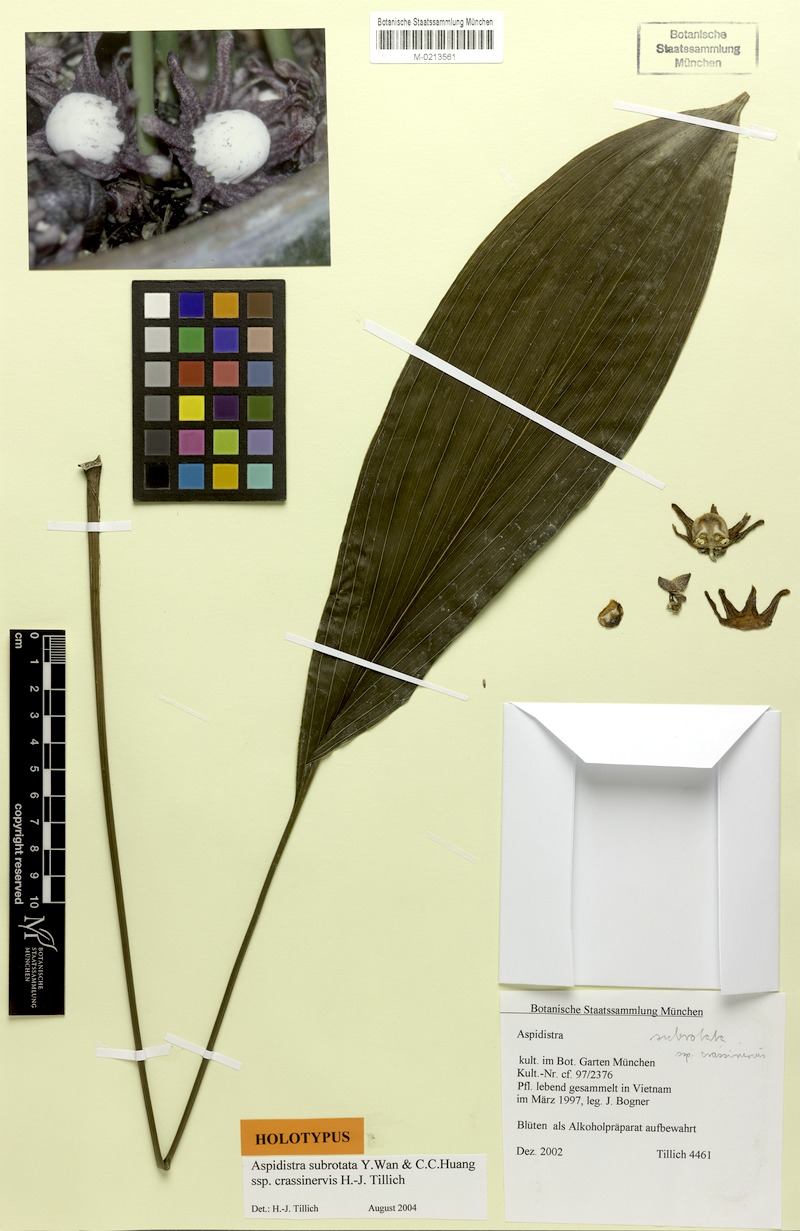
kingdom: Plantae
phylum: Tracheophyta
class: Liliopsida
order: Asparagales
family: Asparagaceae
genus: Aspidistra
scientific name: Aspidistra subrotata
